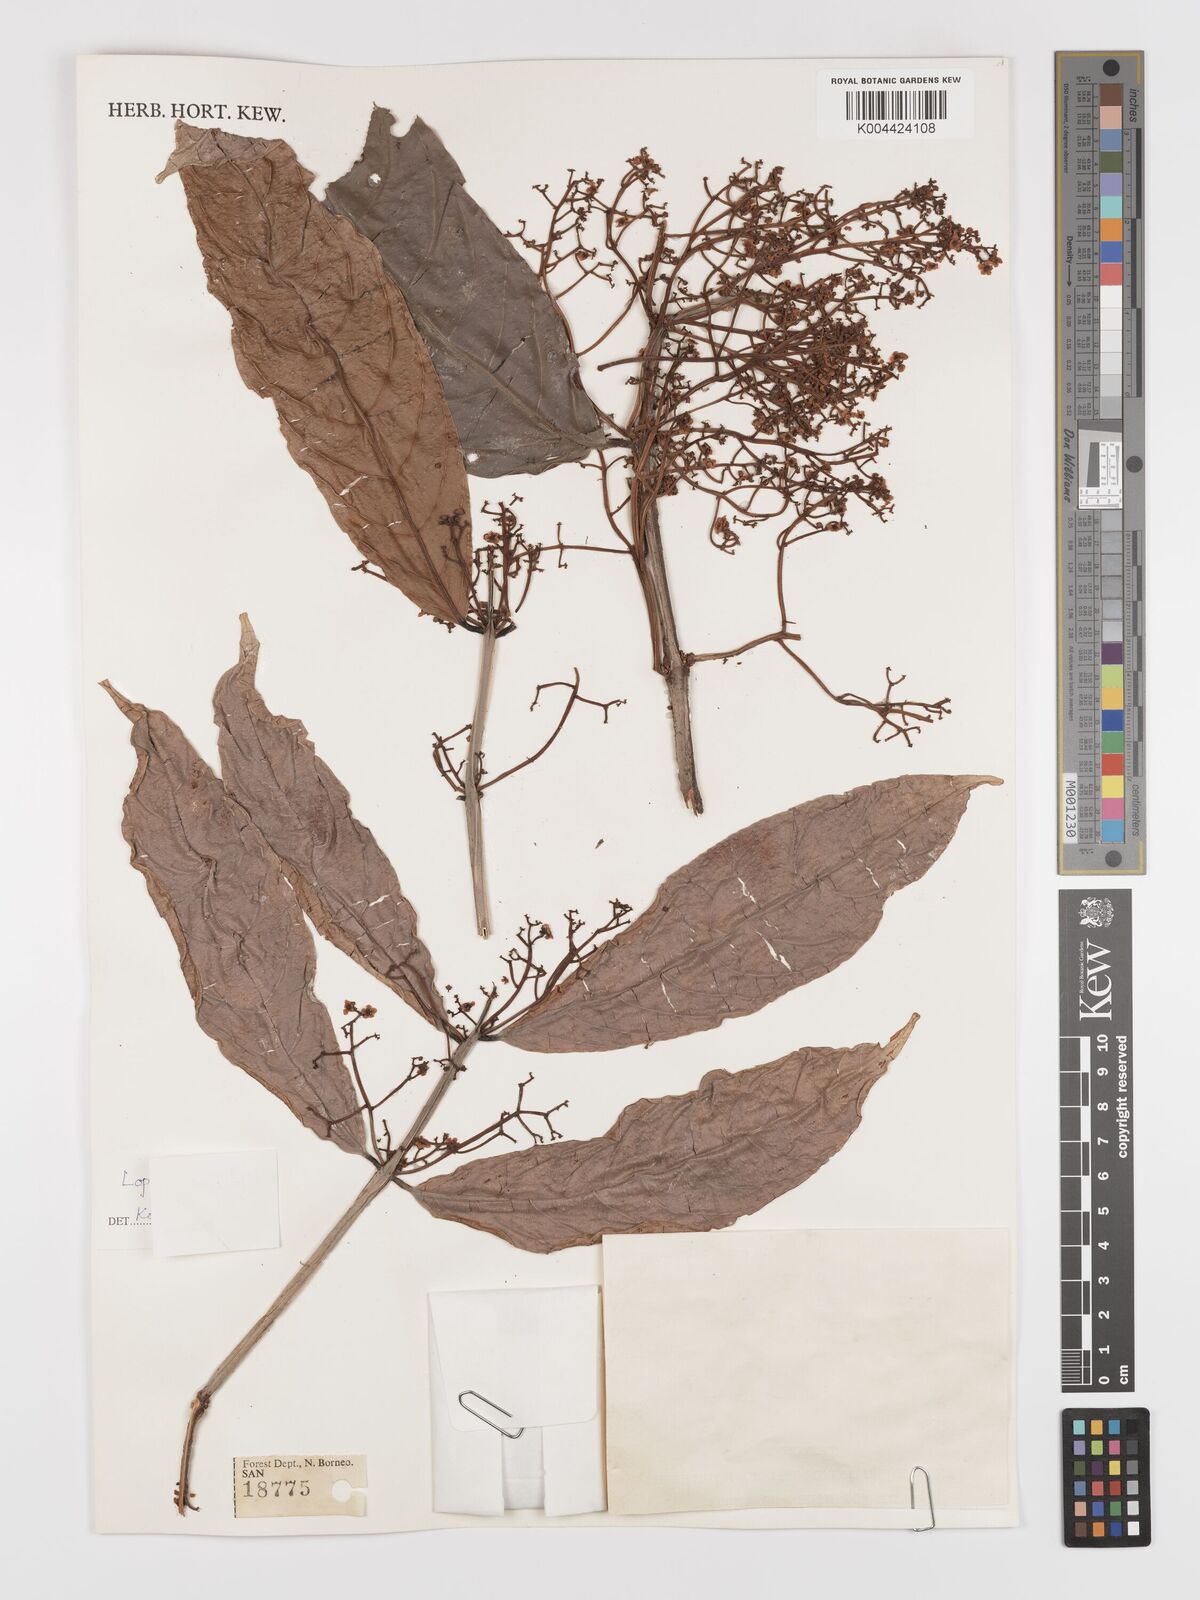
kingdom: Plantae
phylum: Tracheophyta
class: Magnoliopsida
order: Celastrales
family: Celastraceae
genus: Lophopetalum
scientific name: Lophopetalum sessilifolium
